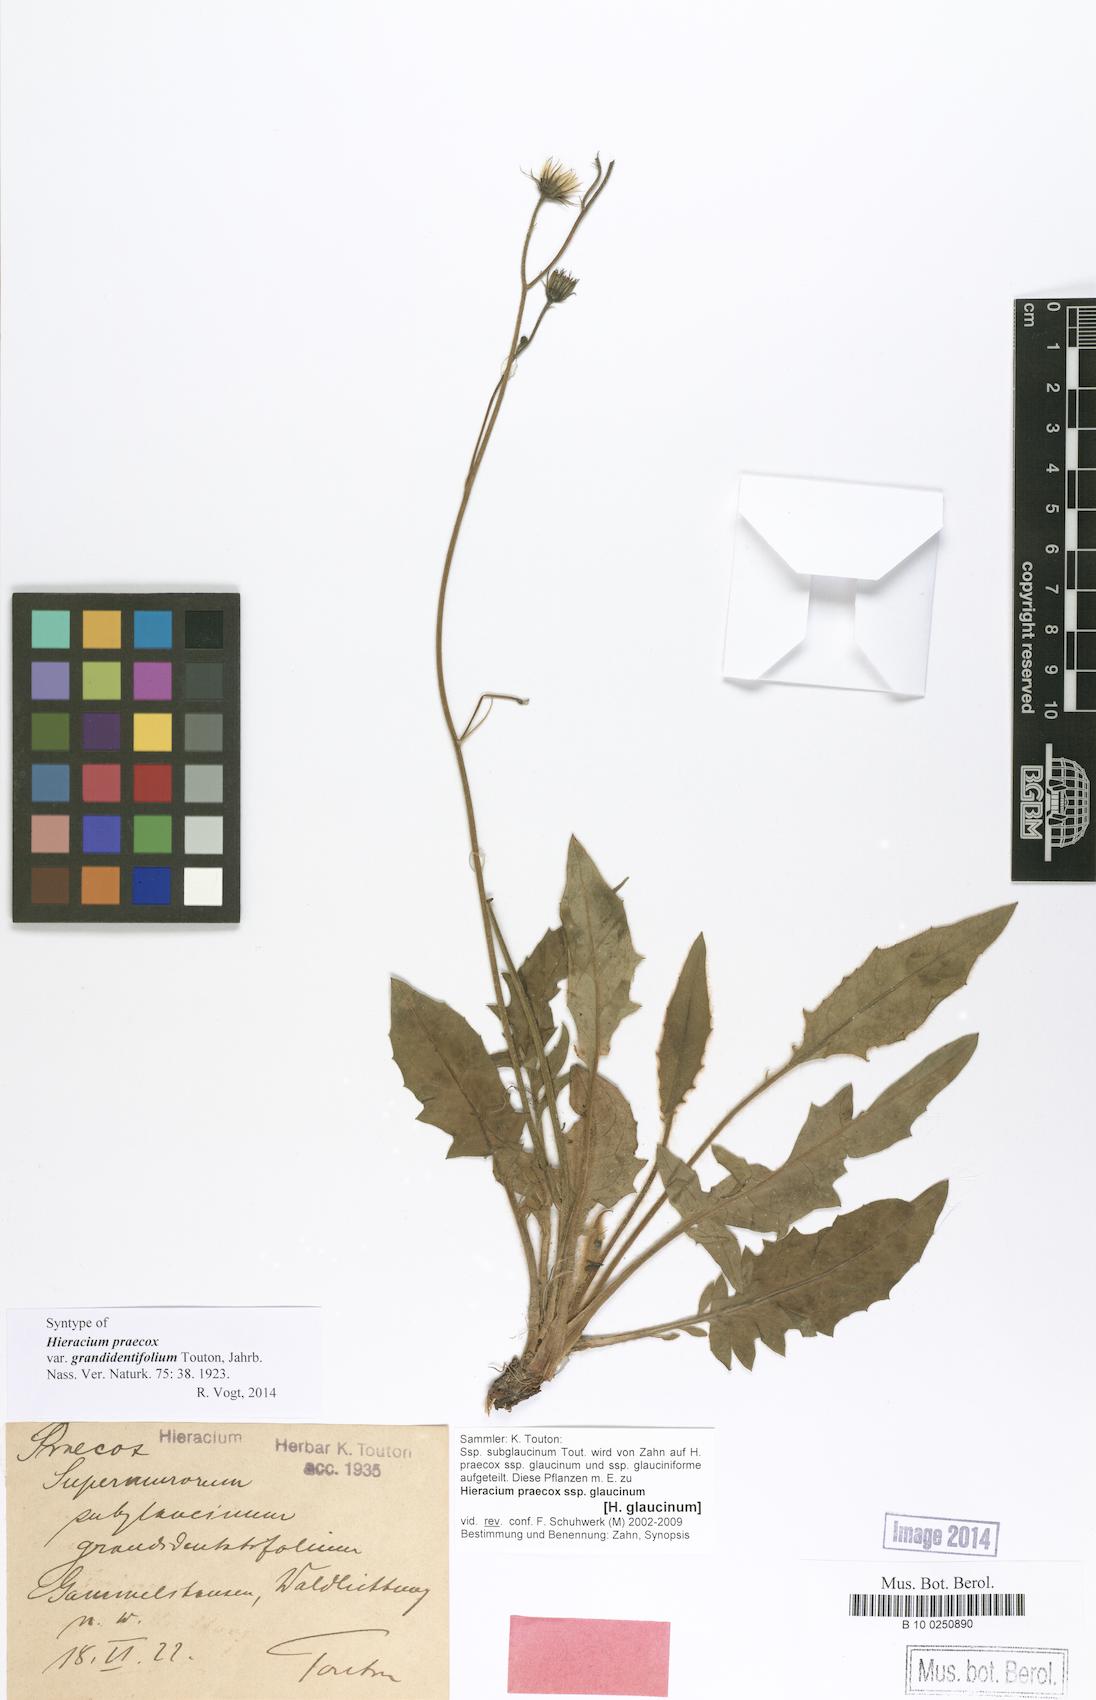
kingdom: Plantae
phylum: Tracheophyta
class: Magnoliopsida
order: Asterales
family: Asteraceae
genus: Hieracium
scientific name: Hieracium praecox
